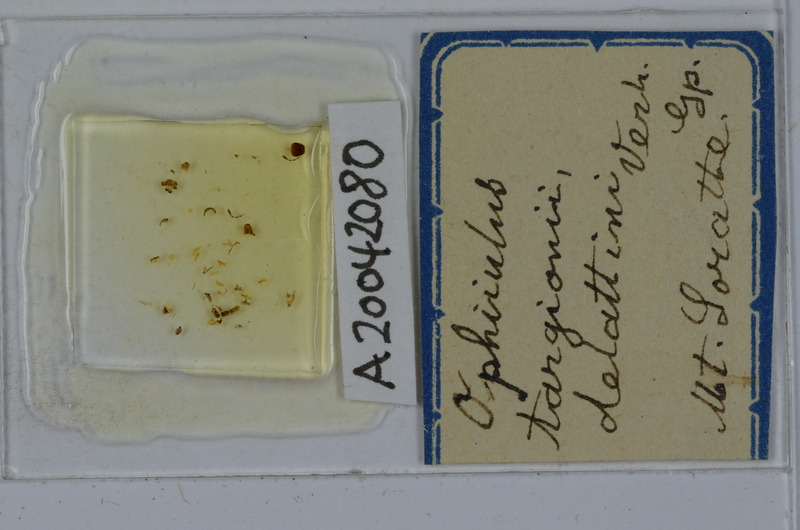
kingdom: Animalia
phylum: Arthropoda
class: Diplopoda
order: Julida
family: Julidae
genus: Ophyiulus
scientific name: Ophyiulus targionii
